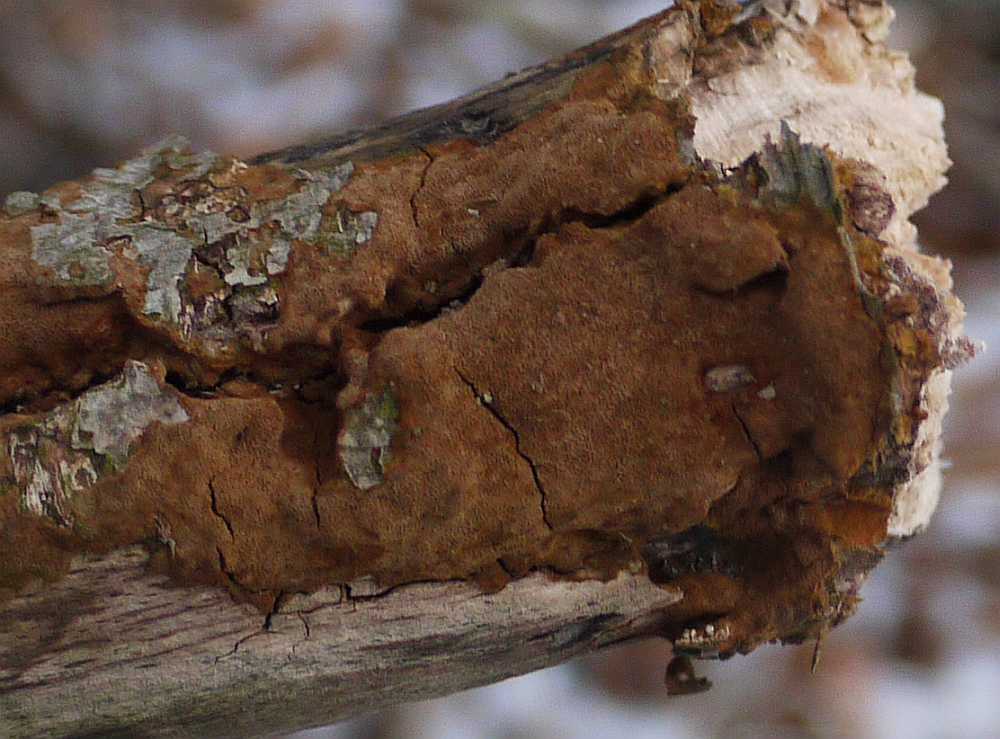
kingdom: Fungi
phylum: Basidiomycota
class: Agaricomycetes
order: Hymenochaetales
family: Hymenochaetaceae
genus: Fuscoporia
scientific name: Fuscoporia ferruginosa
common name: rustbrun ildporesvamp
